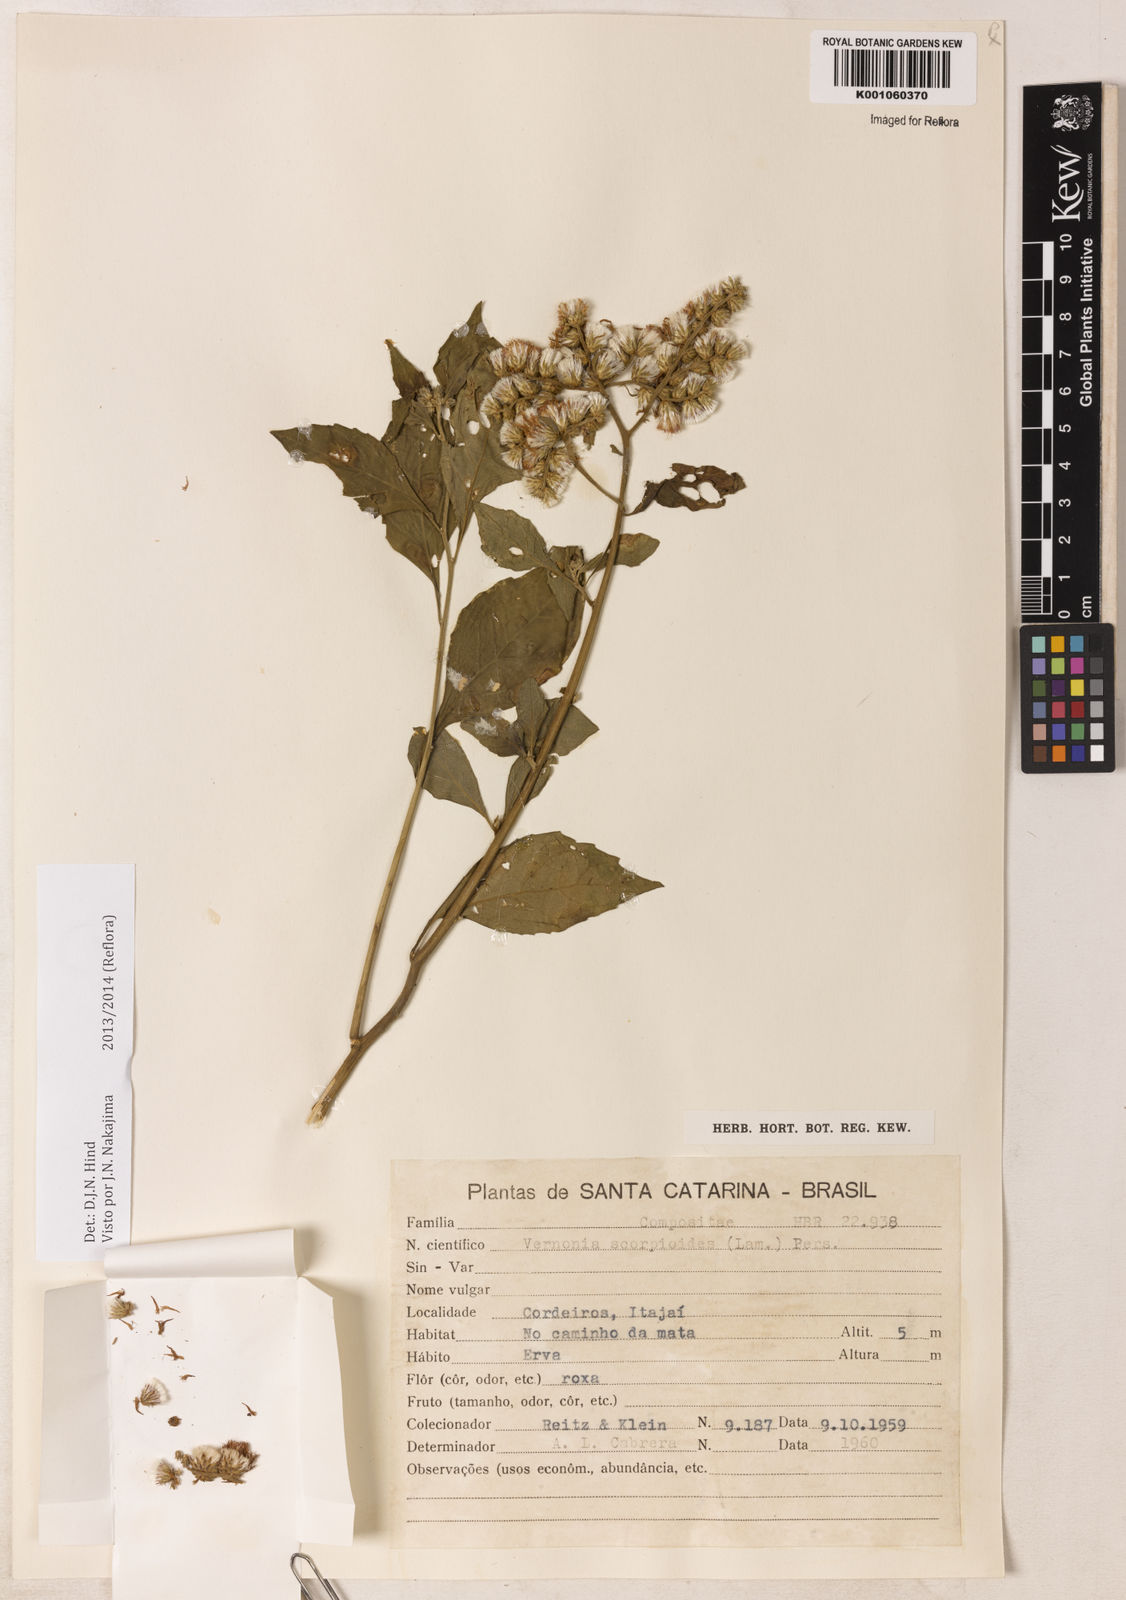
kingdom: Plantae
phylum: Tracheophyta
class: Magnoliopsida
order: Asterales
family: Asteraceae
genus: Cyrtocymura
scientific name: Cyrtocymura scorpioides
